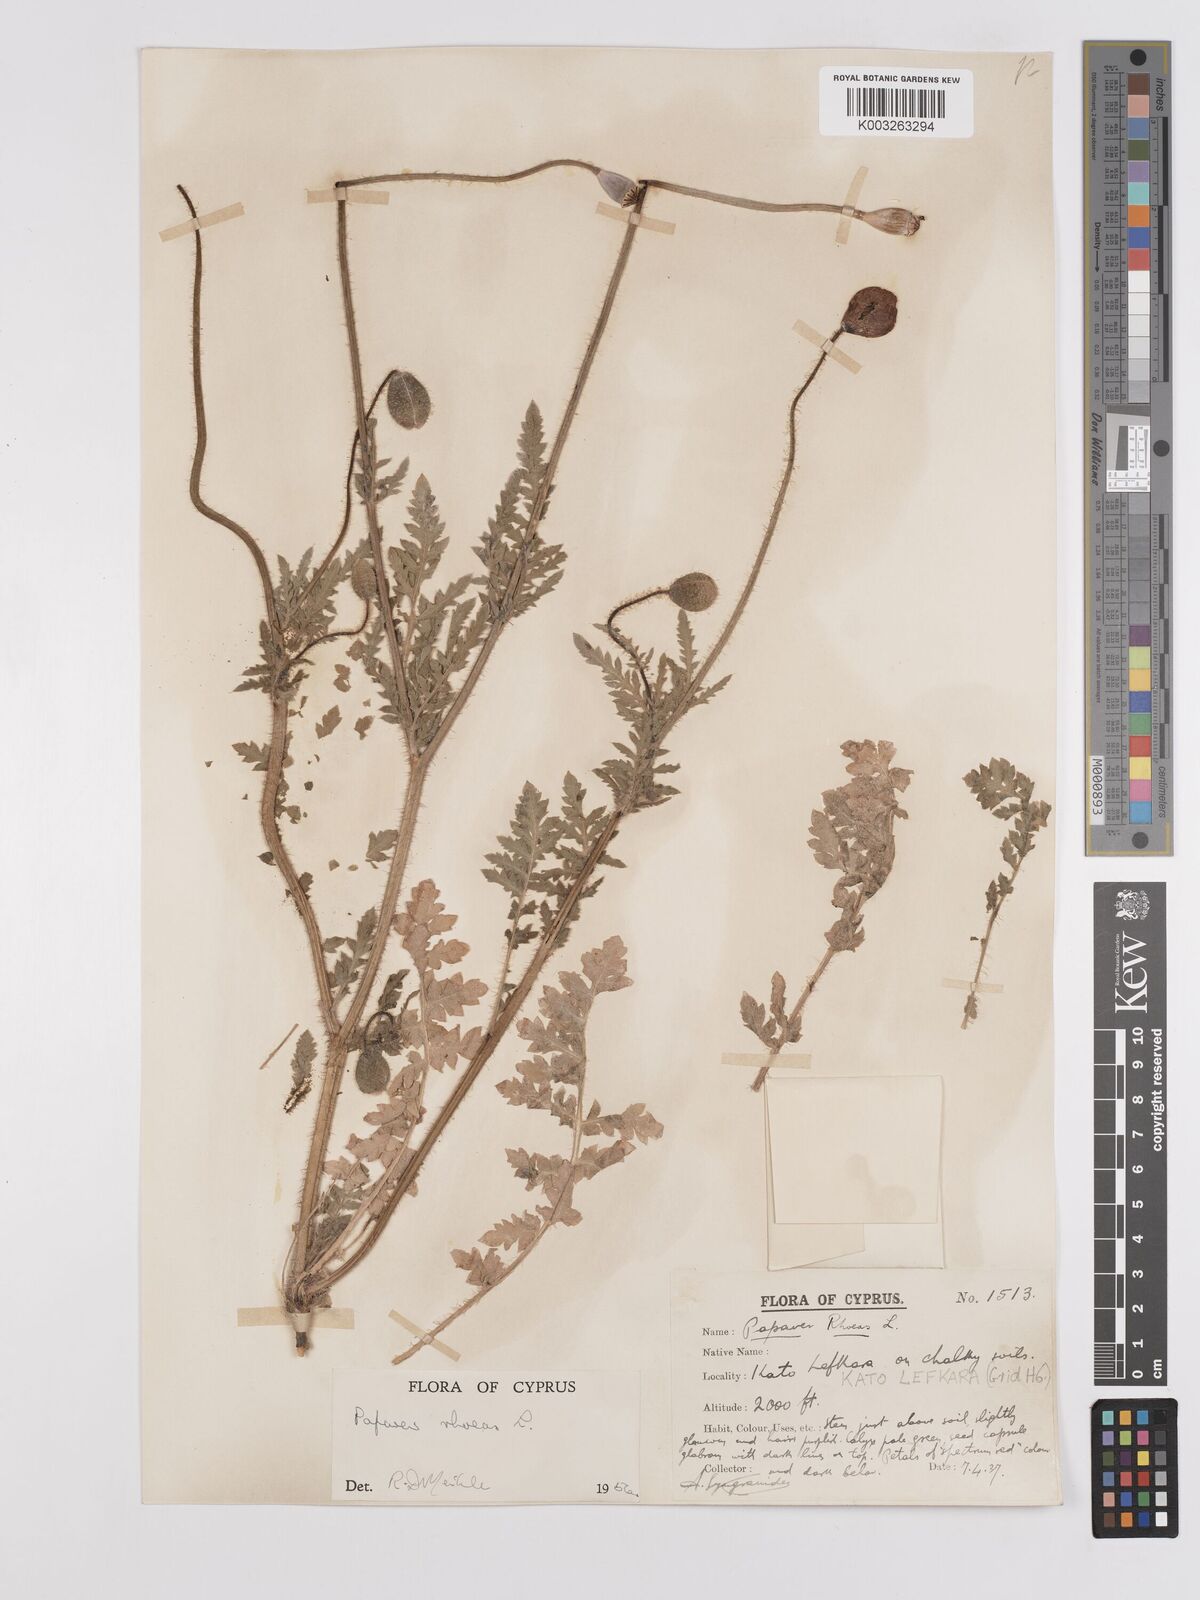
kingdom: Plantae
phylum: Tracheophyta
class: Magnoliopsida
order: Ranunculales
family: Papaveraceae
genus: Papaver
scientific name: Papaver rhoeas
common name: Corn poppy
